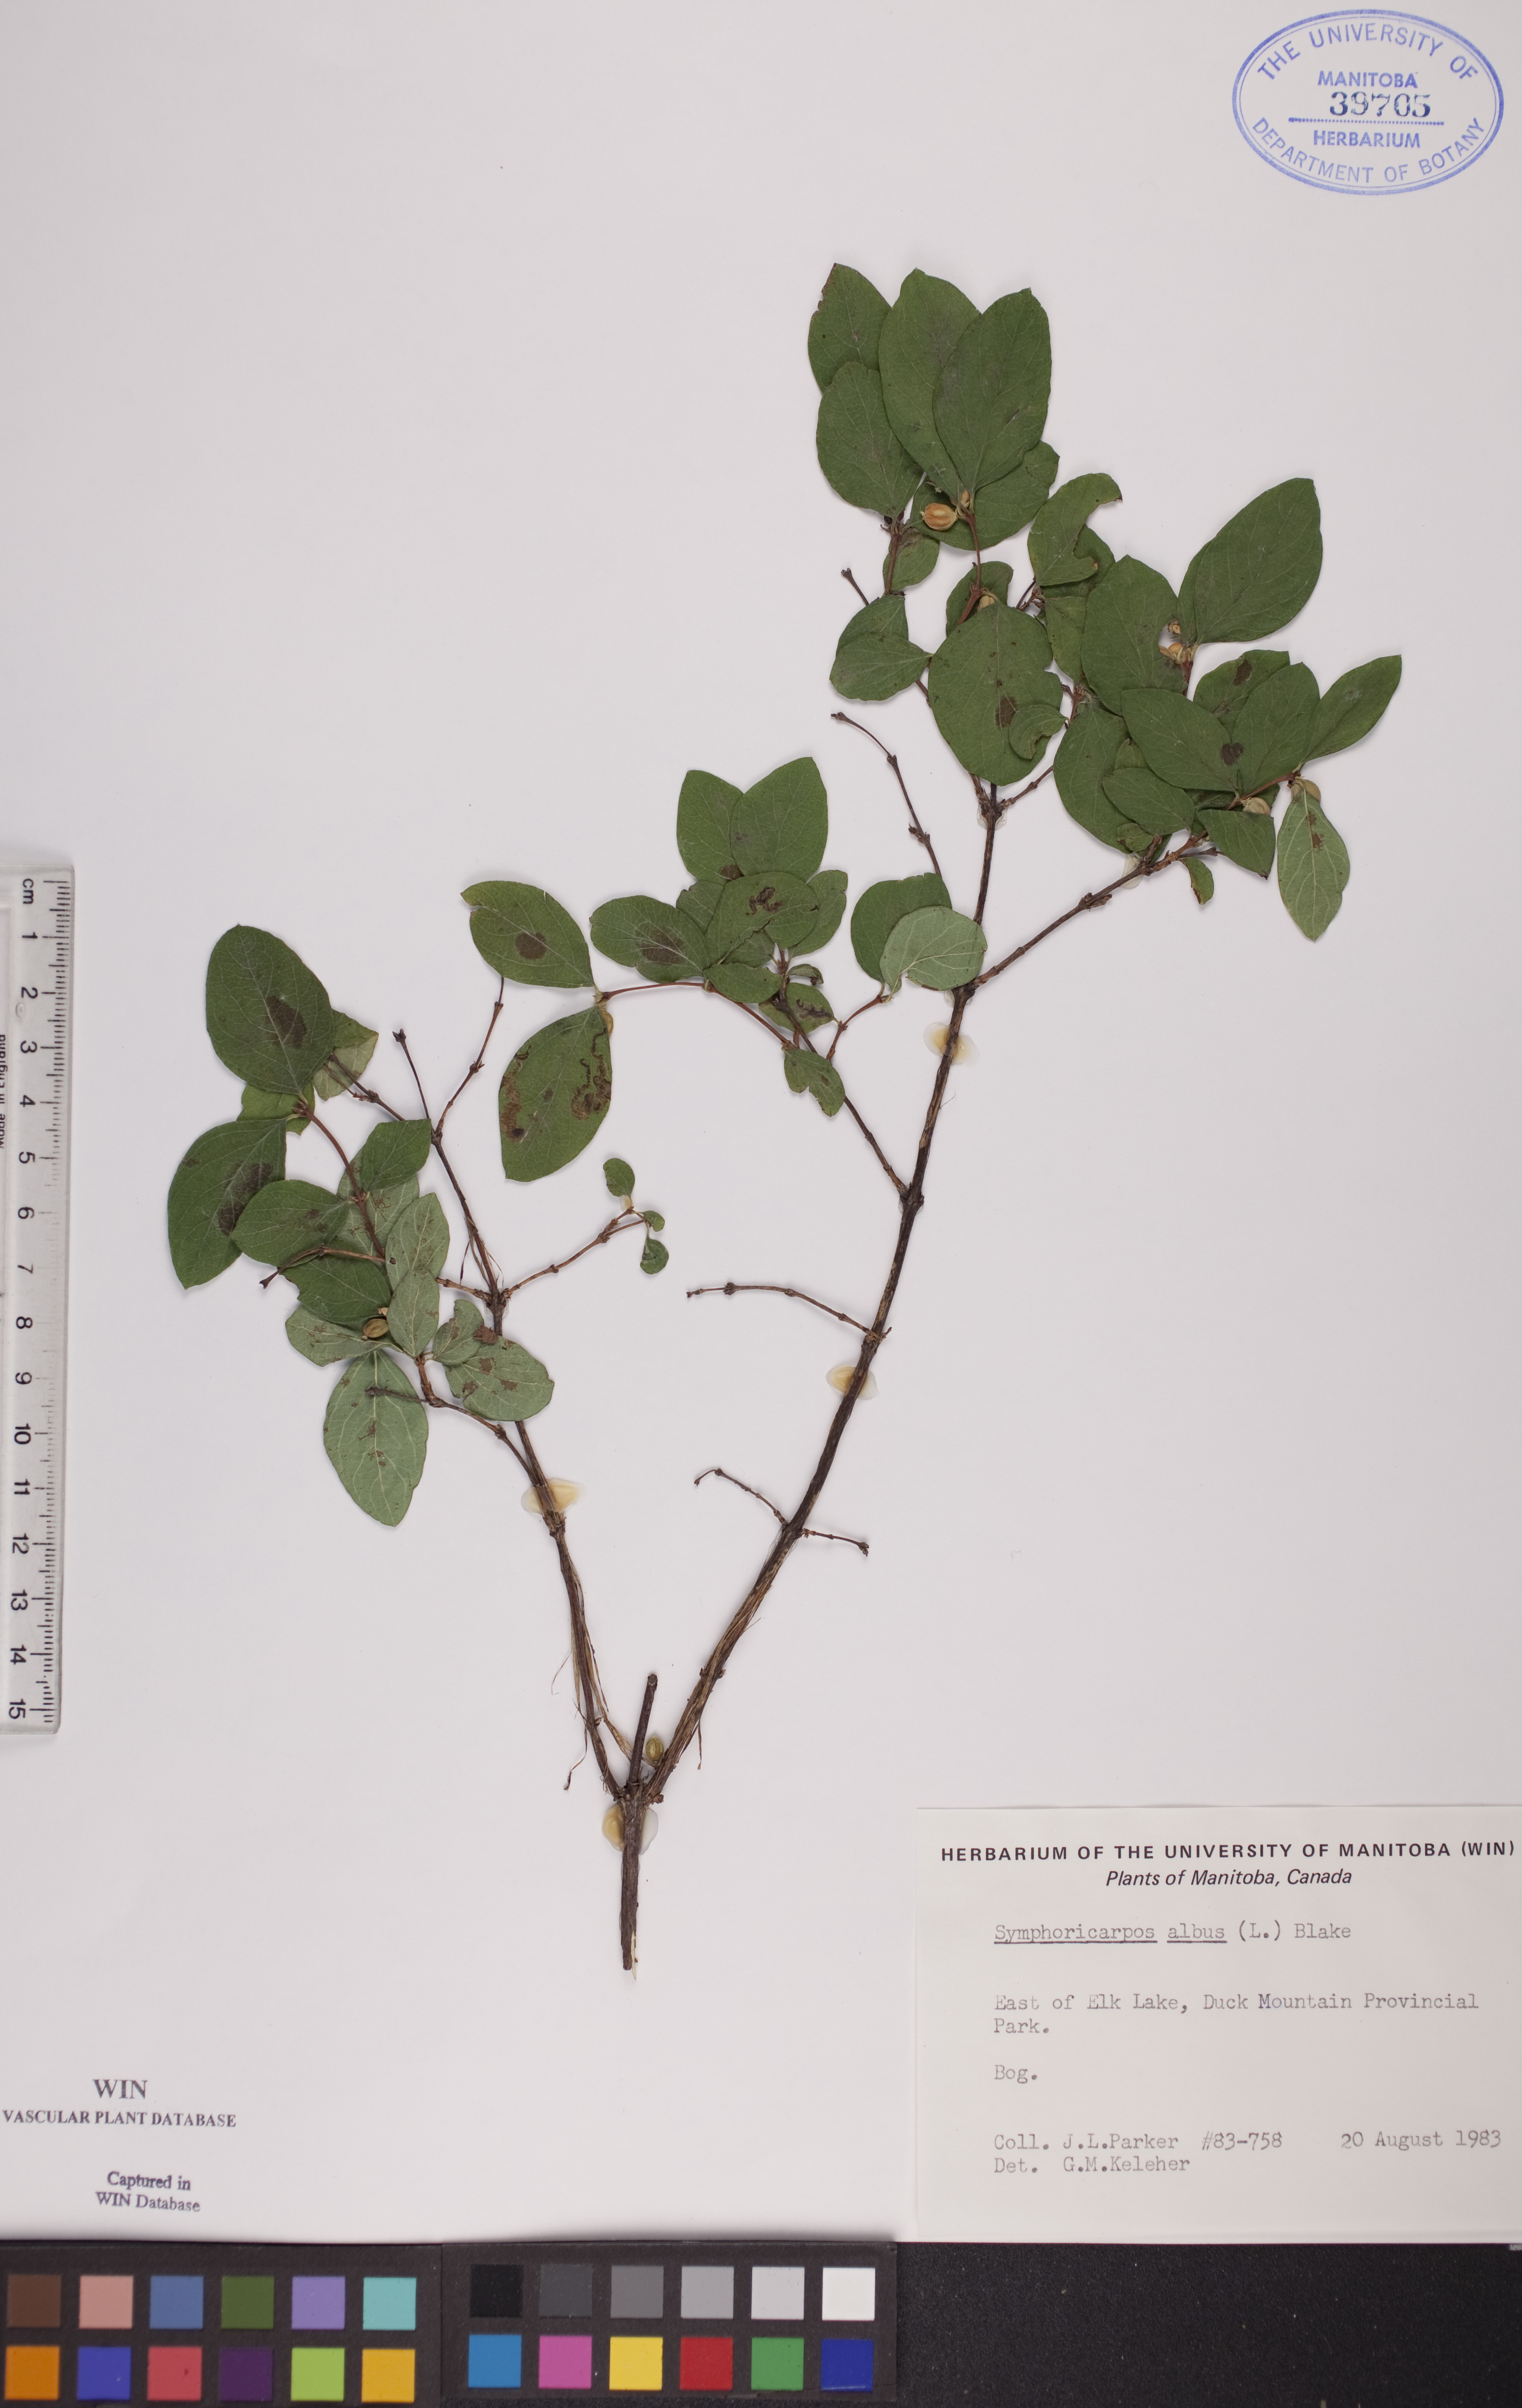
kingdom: Plantae
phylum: Tracheophyta
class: Magnoliopsida
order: Dipsacales
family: Caprifoliaceae
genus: Symphoricarpos
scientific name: Symphoricarpos albus
